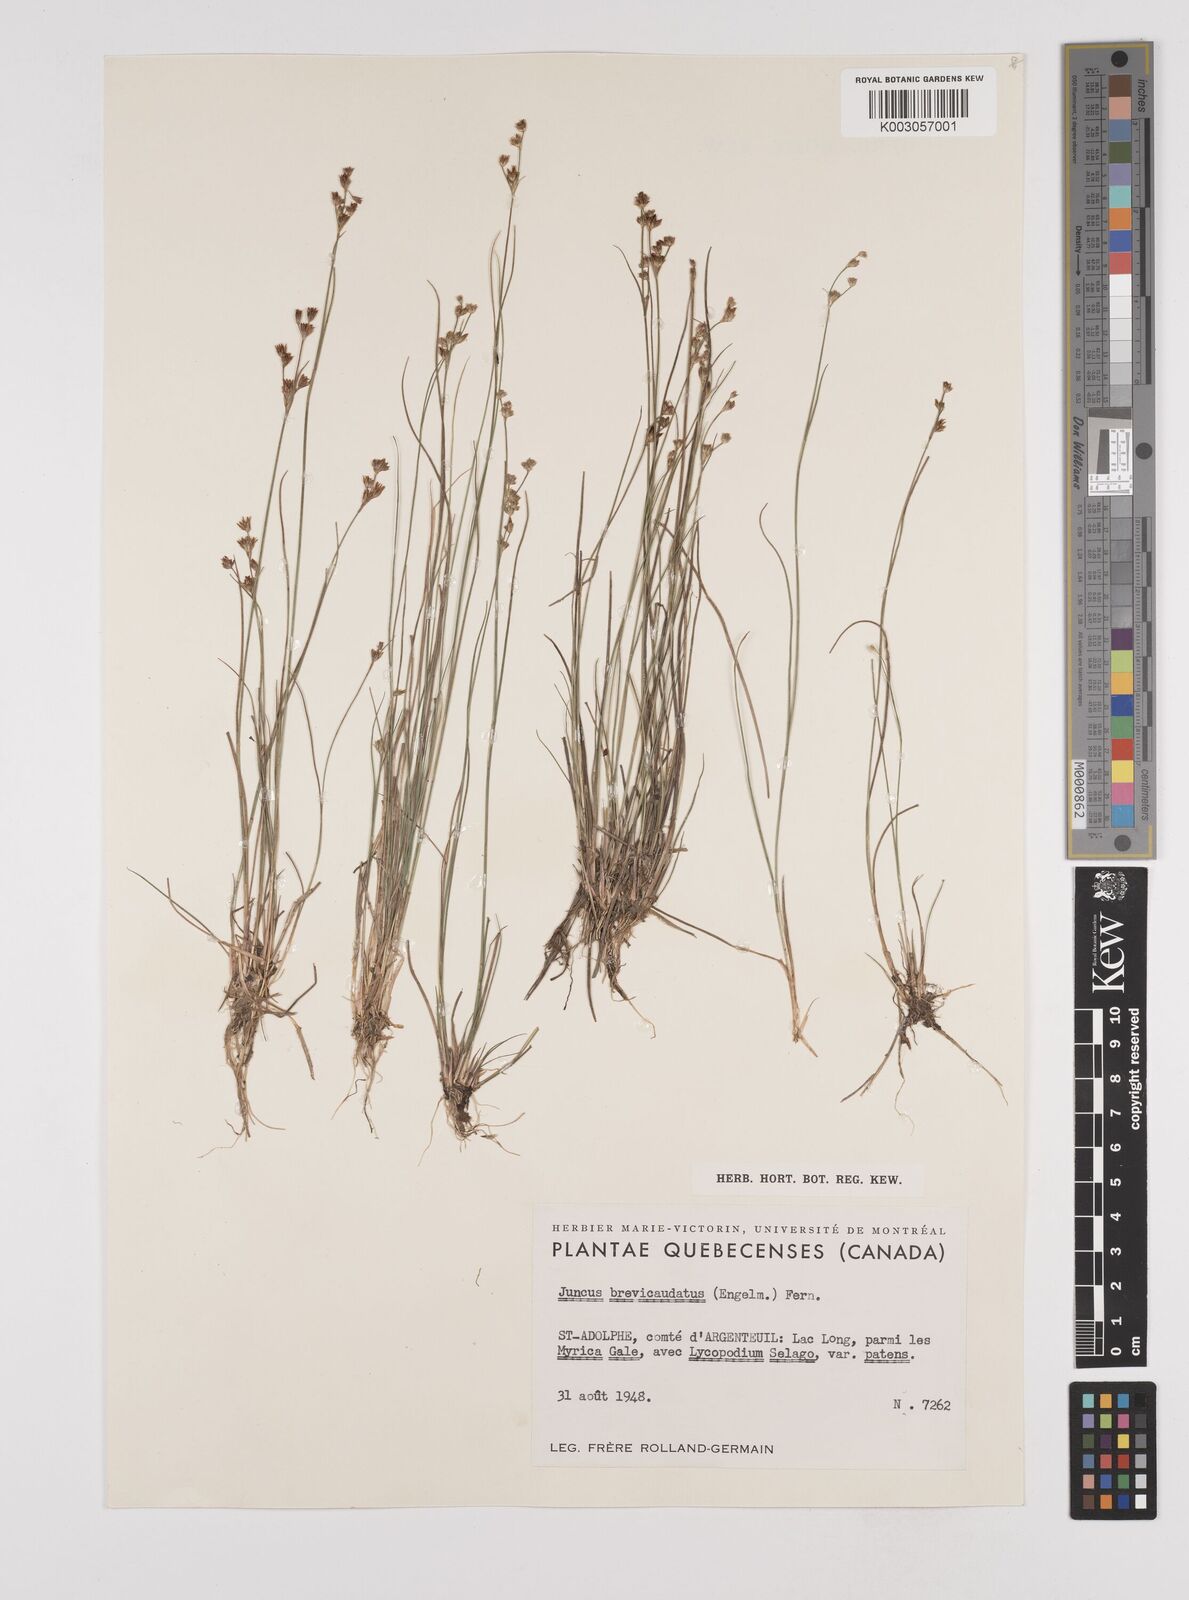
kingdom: Plantae
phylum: Tracheophyta
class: Liliopsida
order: Poales
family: Juncaceae
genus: Juncus
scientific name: Juncus brevicaudatus
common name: Narrow-panicle rush
